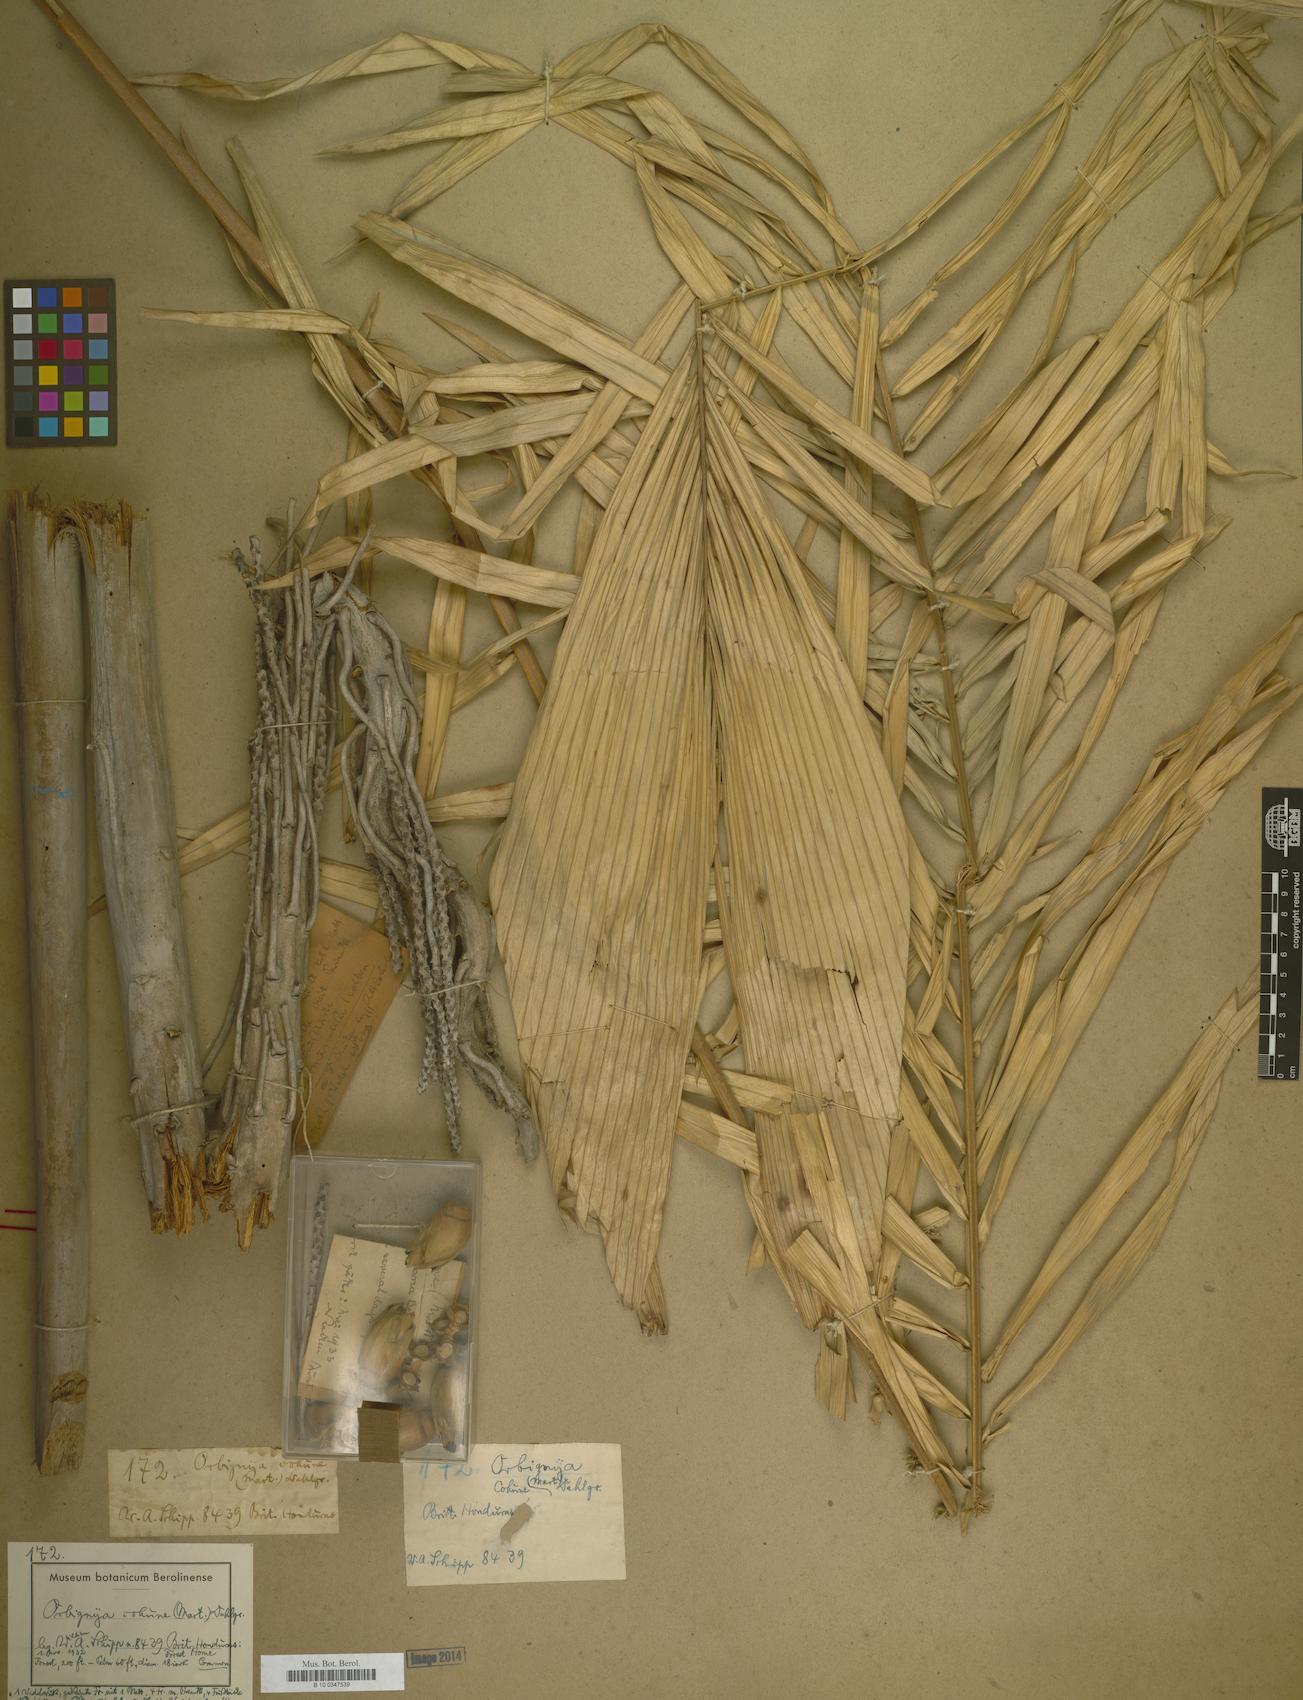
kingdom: Plantae
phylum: Tracheophyta
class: Magnoliopsida
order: Sapindales
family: Sapindaceae
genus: Orbignya
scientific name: Orbignya
